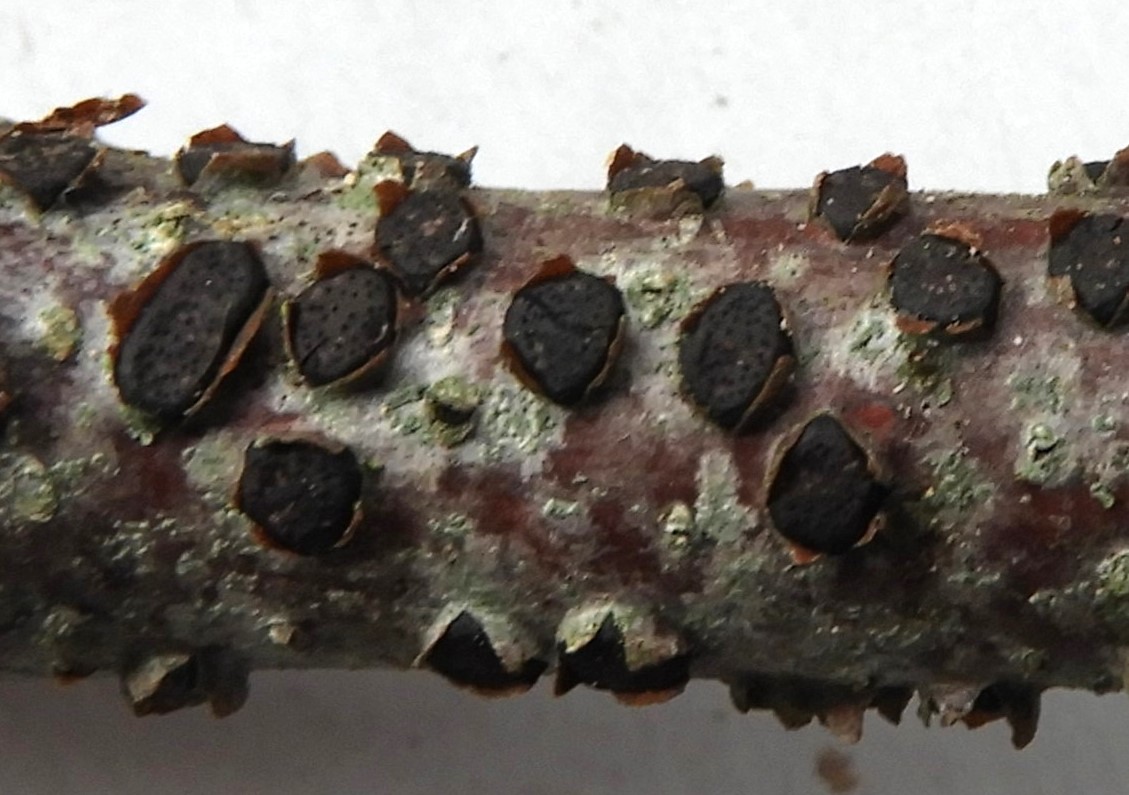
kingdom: Fungi
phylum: Ascomycota
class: Sordariomycetes
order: Xylariales
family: Diatrypaceae
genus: Diatrype
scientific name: Diatrype disciformis
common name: kant-kulskorpe
